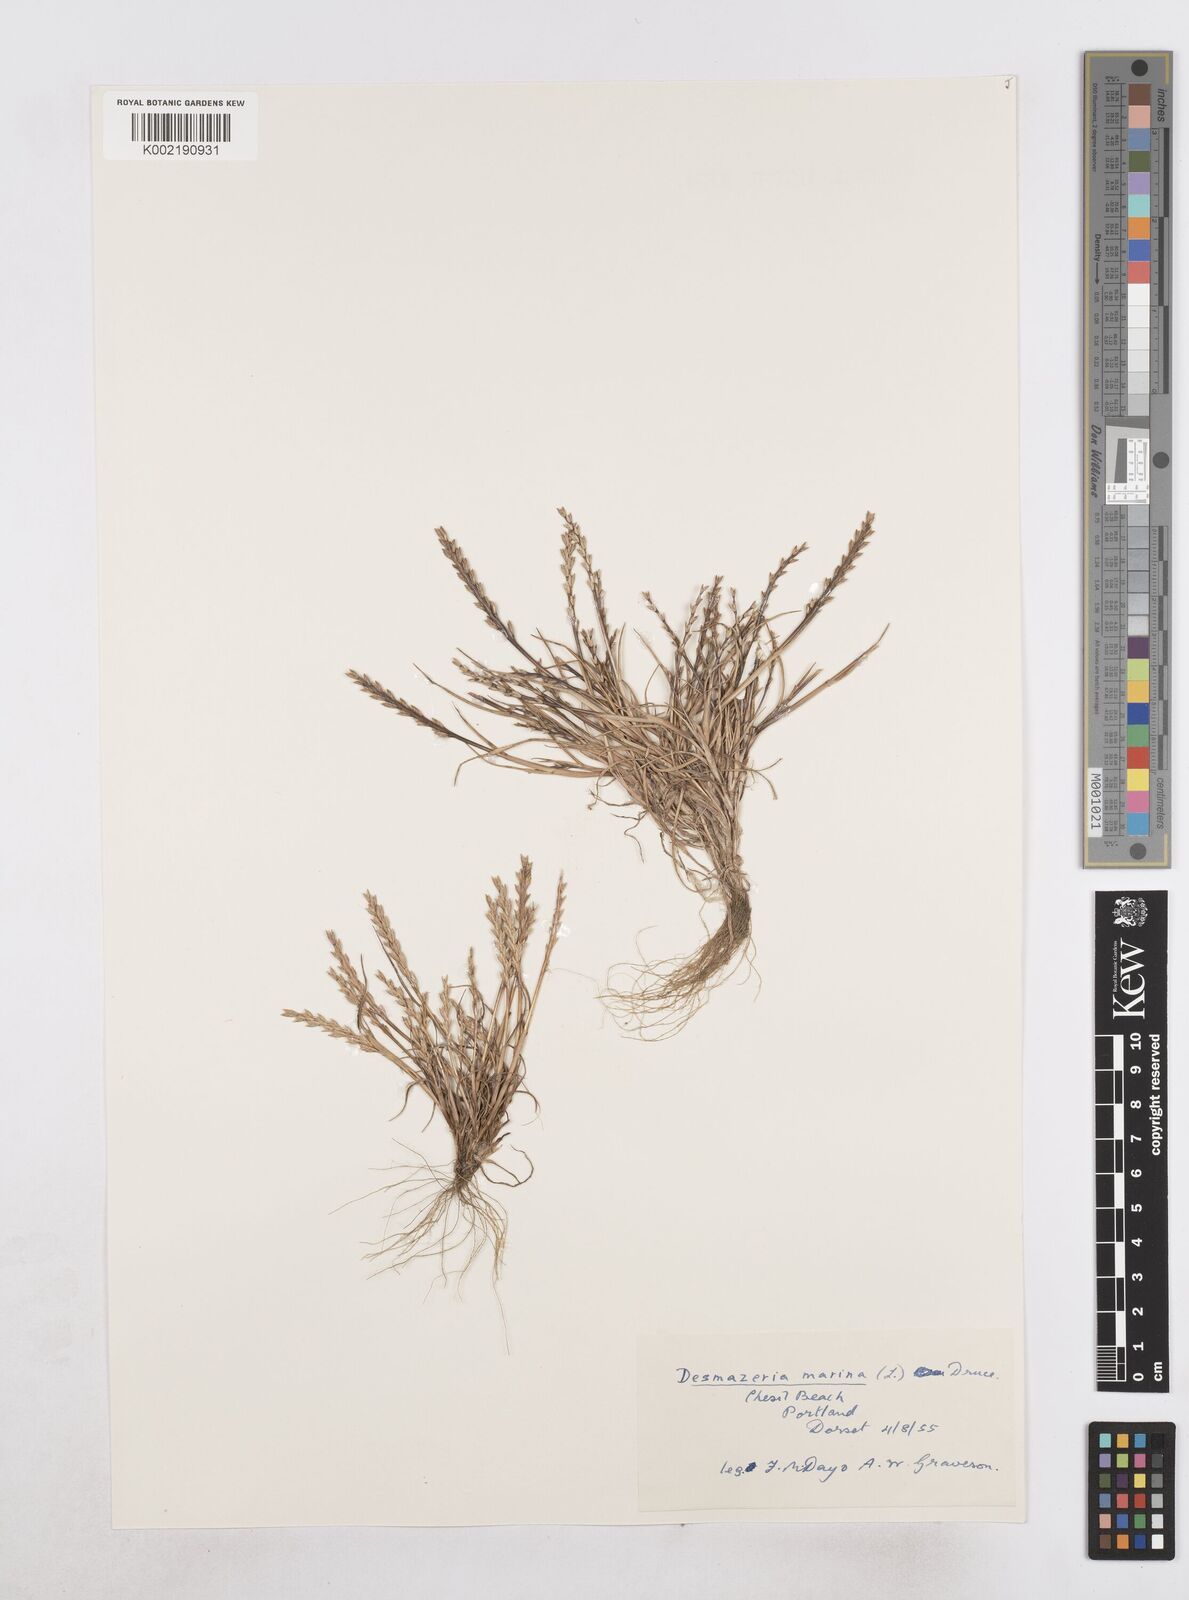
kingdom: Plantae
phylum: Tracheophyta
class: Liliopsida
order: Poales
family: Poaceae
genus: Catapodium
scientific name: Catapodium marinum
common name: Sea fern-grass
